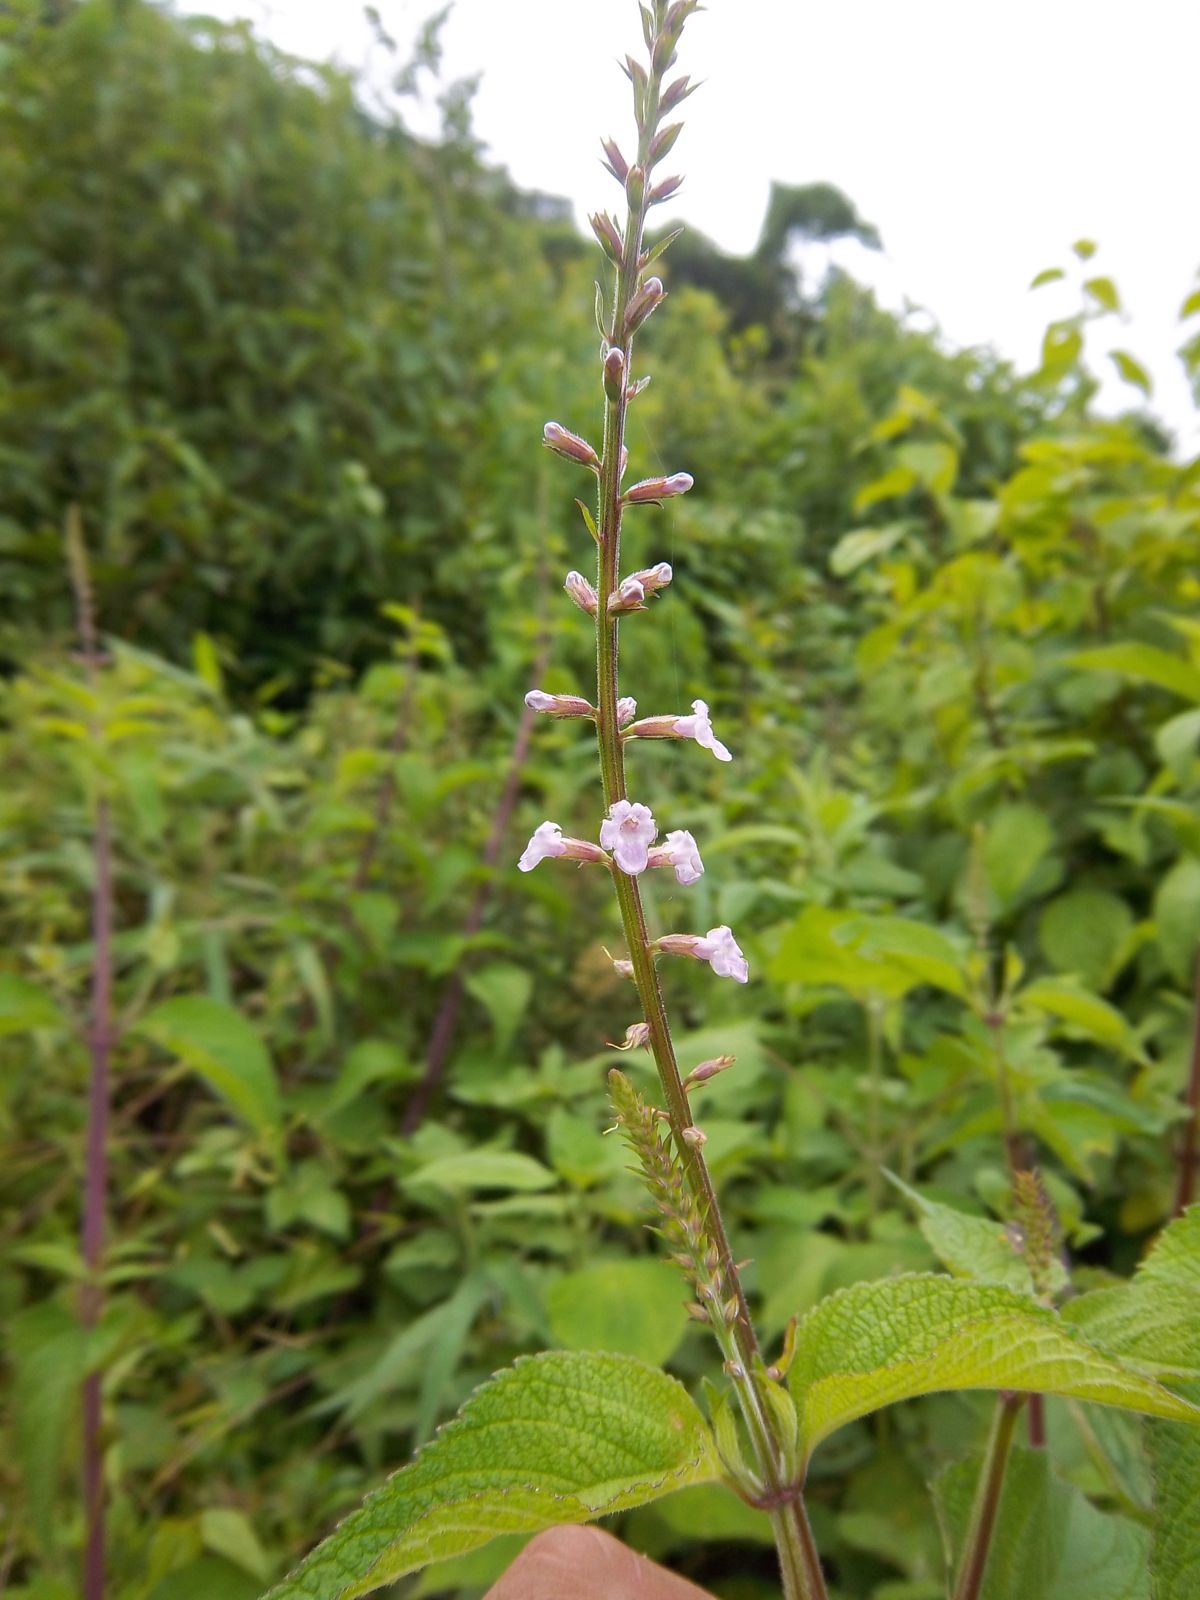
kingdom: Plantae
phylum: Tracheophyta
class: Magnoliopsida
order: Lamiales
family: Verbenaceae
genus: Lantana
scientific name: Lantana trifolia
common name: Sweet-sage
